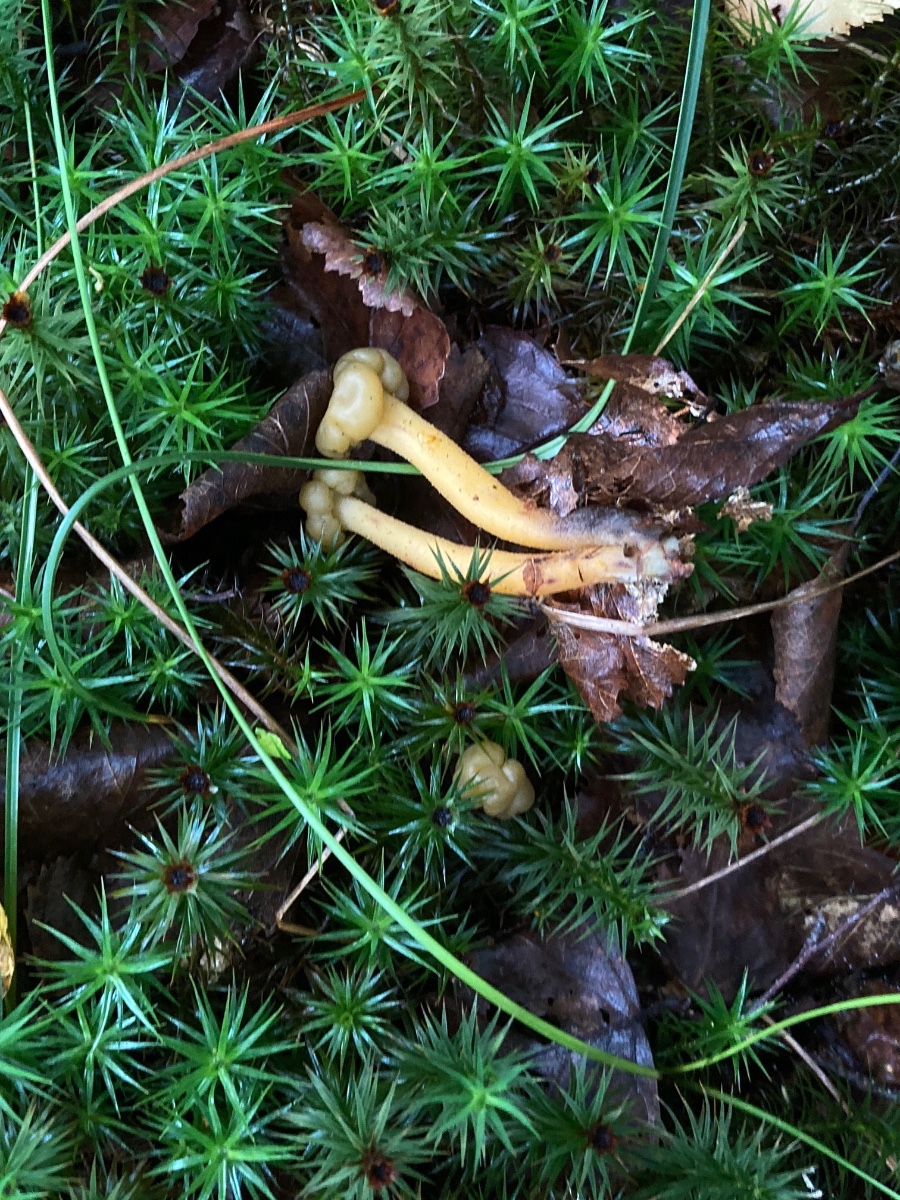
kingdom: Fungi
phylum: Ascomycota
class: Leotiomycetes
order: Leotiales
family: Leotiaceae
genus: Leotia
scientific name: Leotia lubrica
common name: ravsvamp
